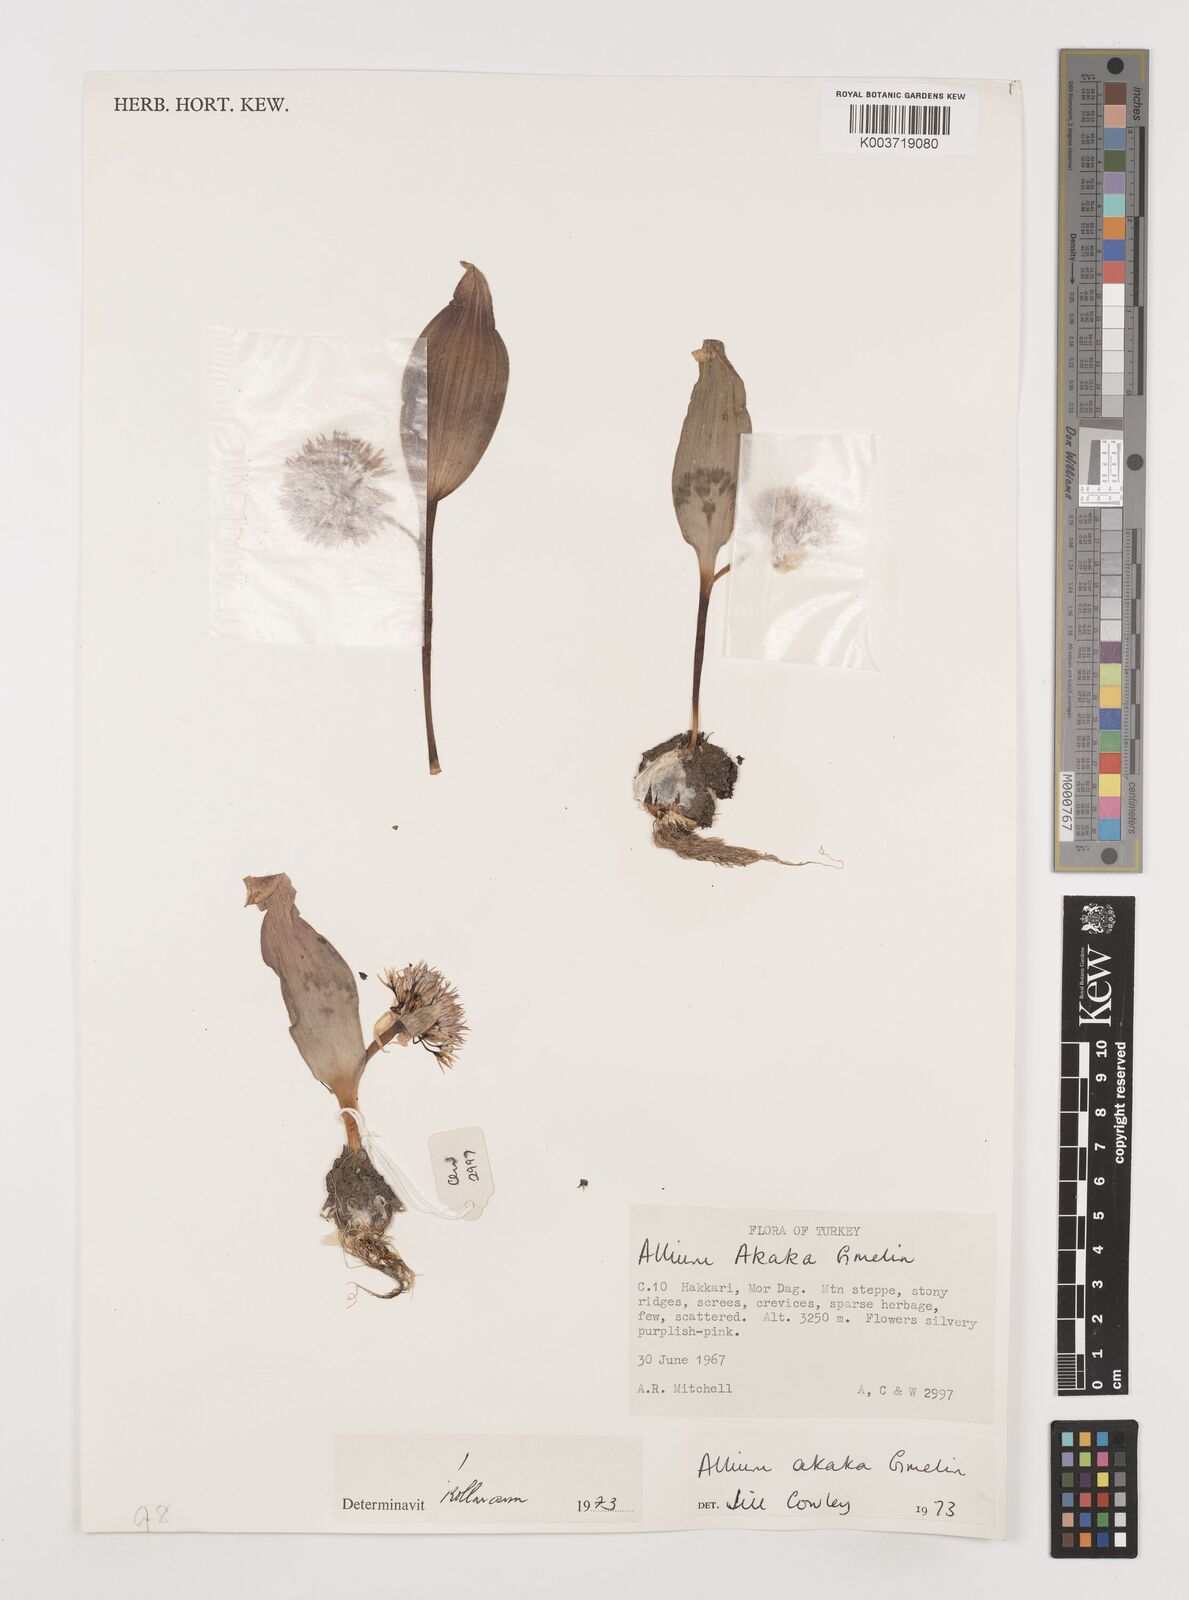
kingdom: Plantae
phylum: Tracheophyta
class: Liliopsida
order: Asparagales
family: Amaryllidaceae
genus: Allium
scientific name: Allium akaka
